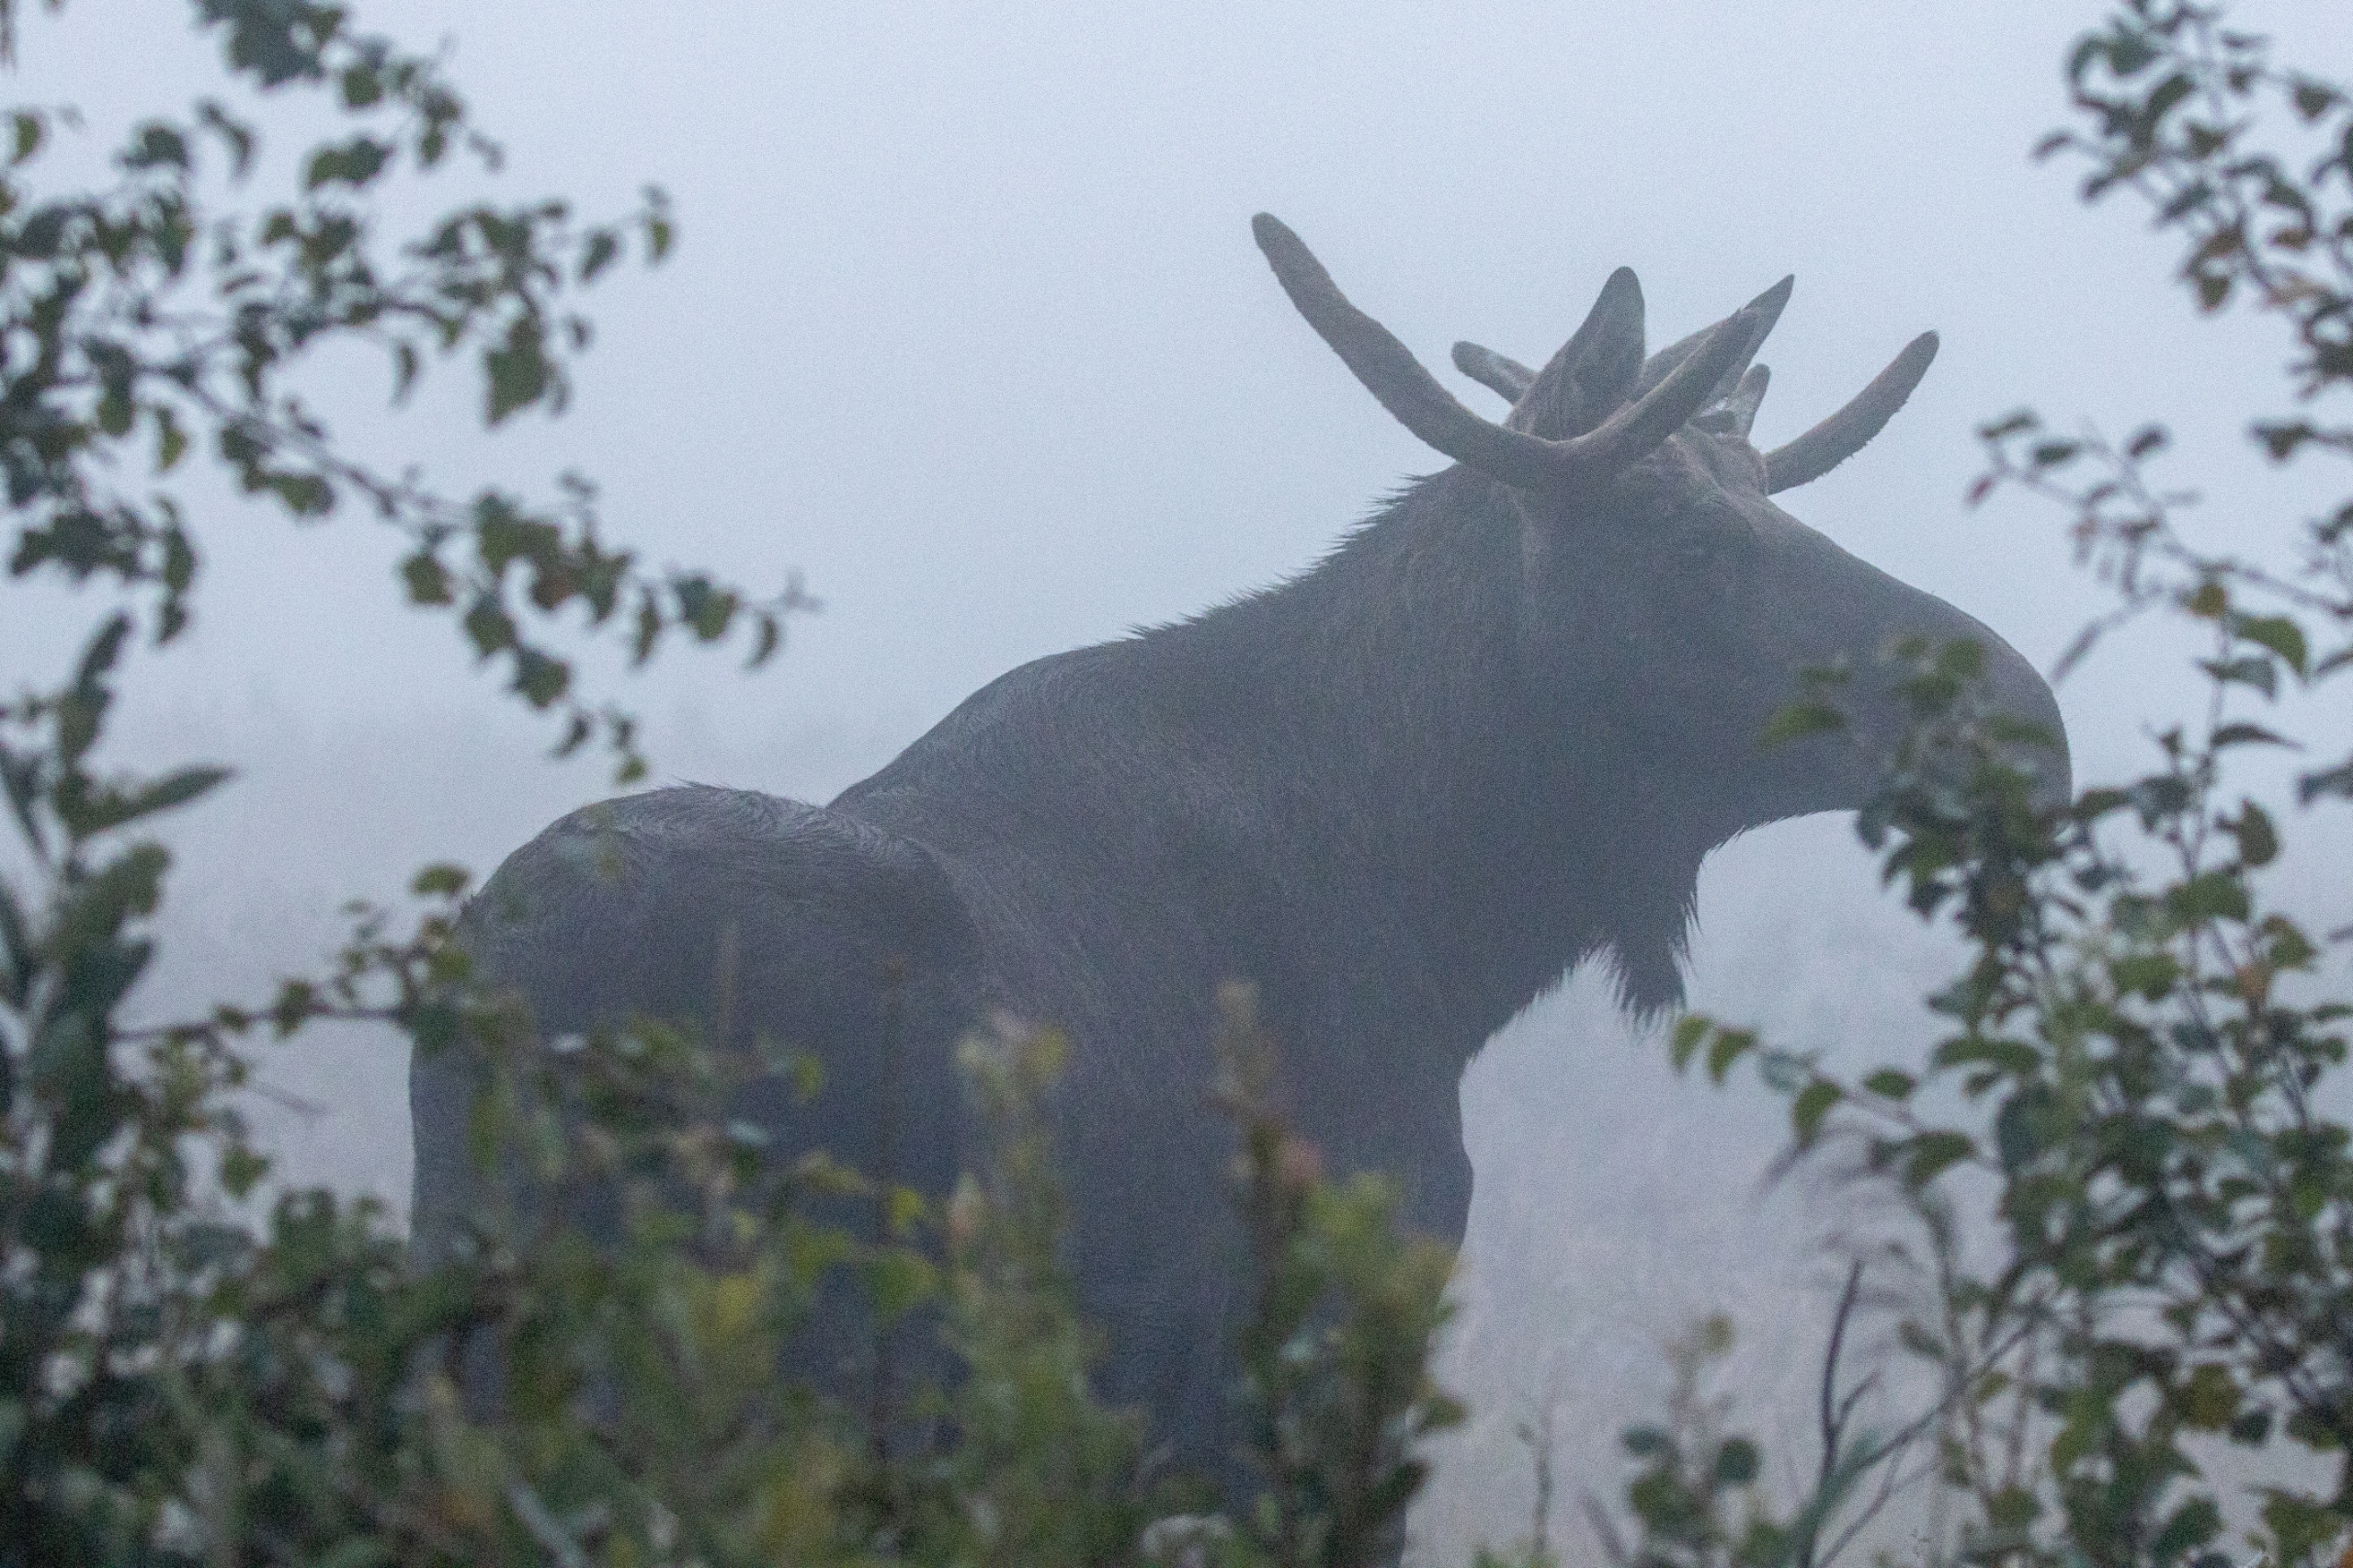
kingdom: Animalia
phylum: Chordata
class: Mammalia
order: Artiodactyla
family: Cervidae
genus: Alces
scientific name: Alces alces
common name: Elg
